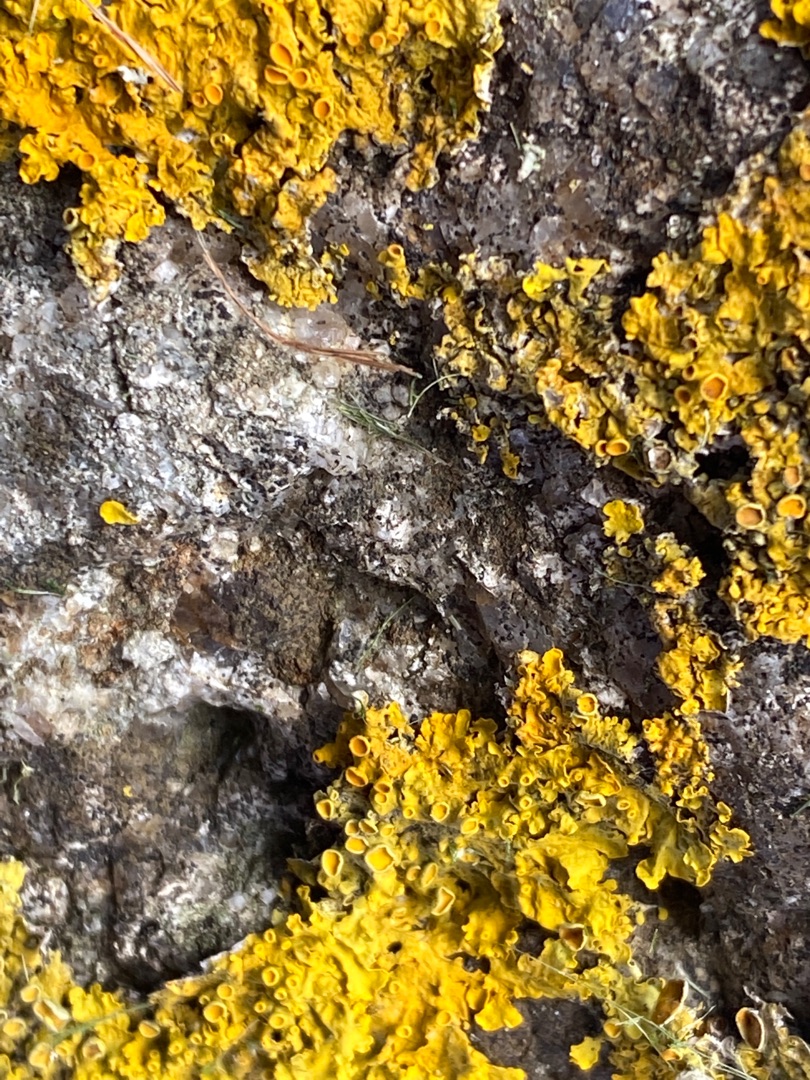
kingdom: Fungi
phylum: Ascomycota
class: Lecanoromycetes
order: Teloschistales
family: Teloschistaceae
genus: Xanthoria
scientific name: Xanthoria parietina
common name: Almindelig væggelav
